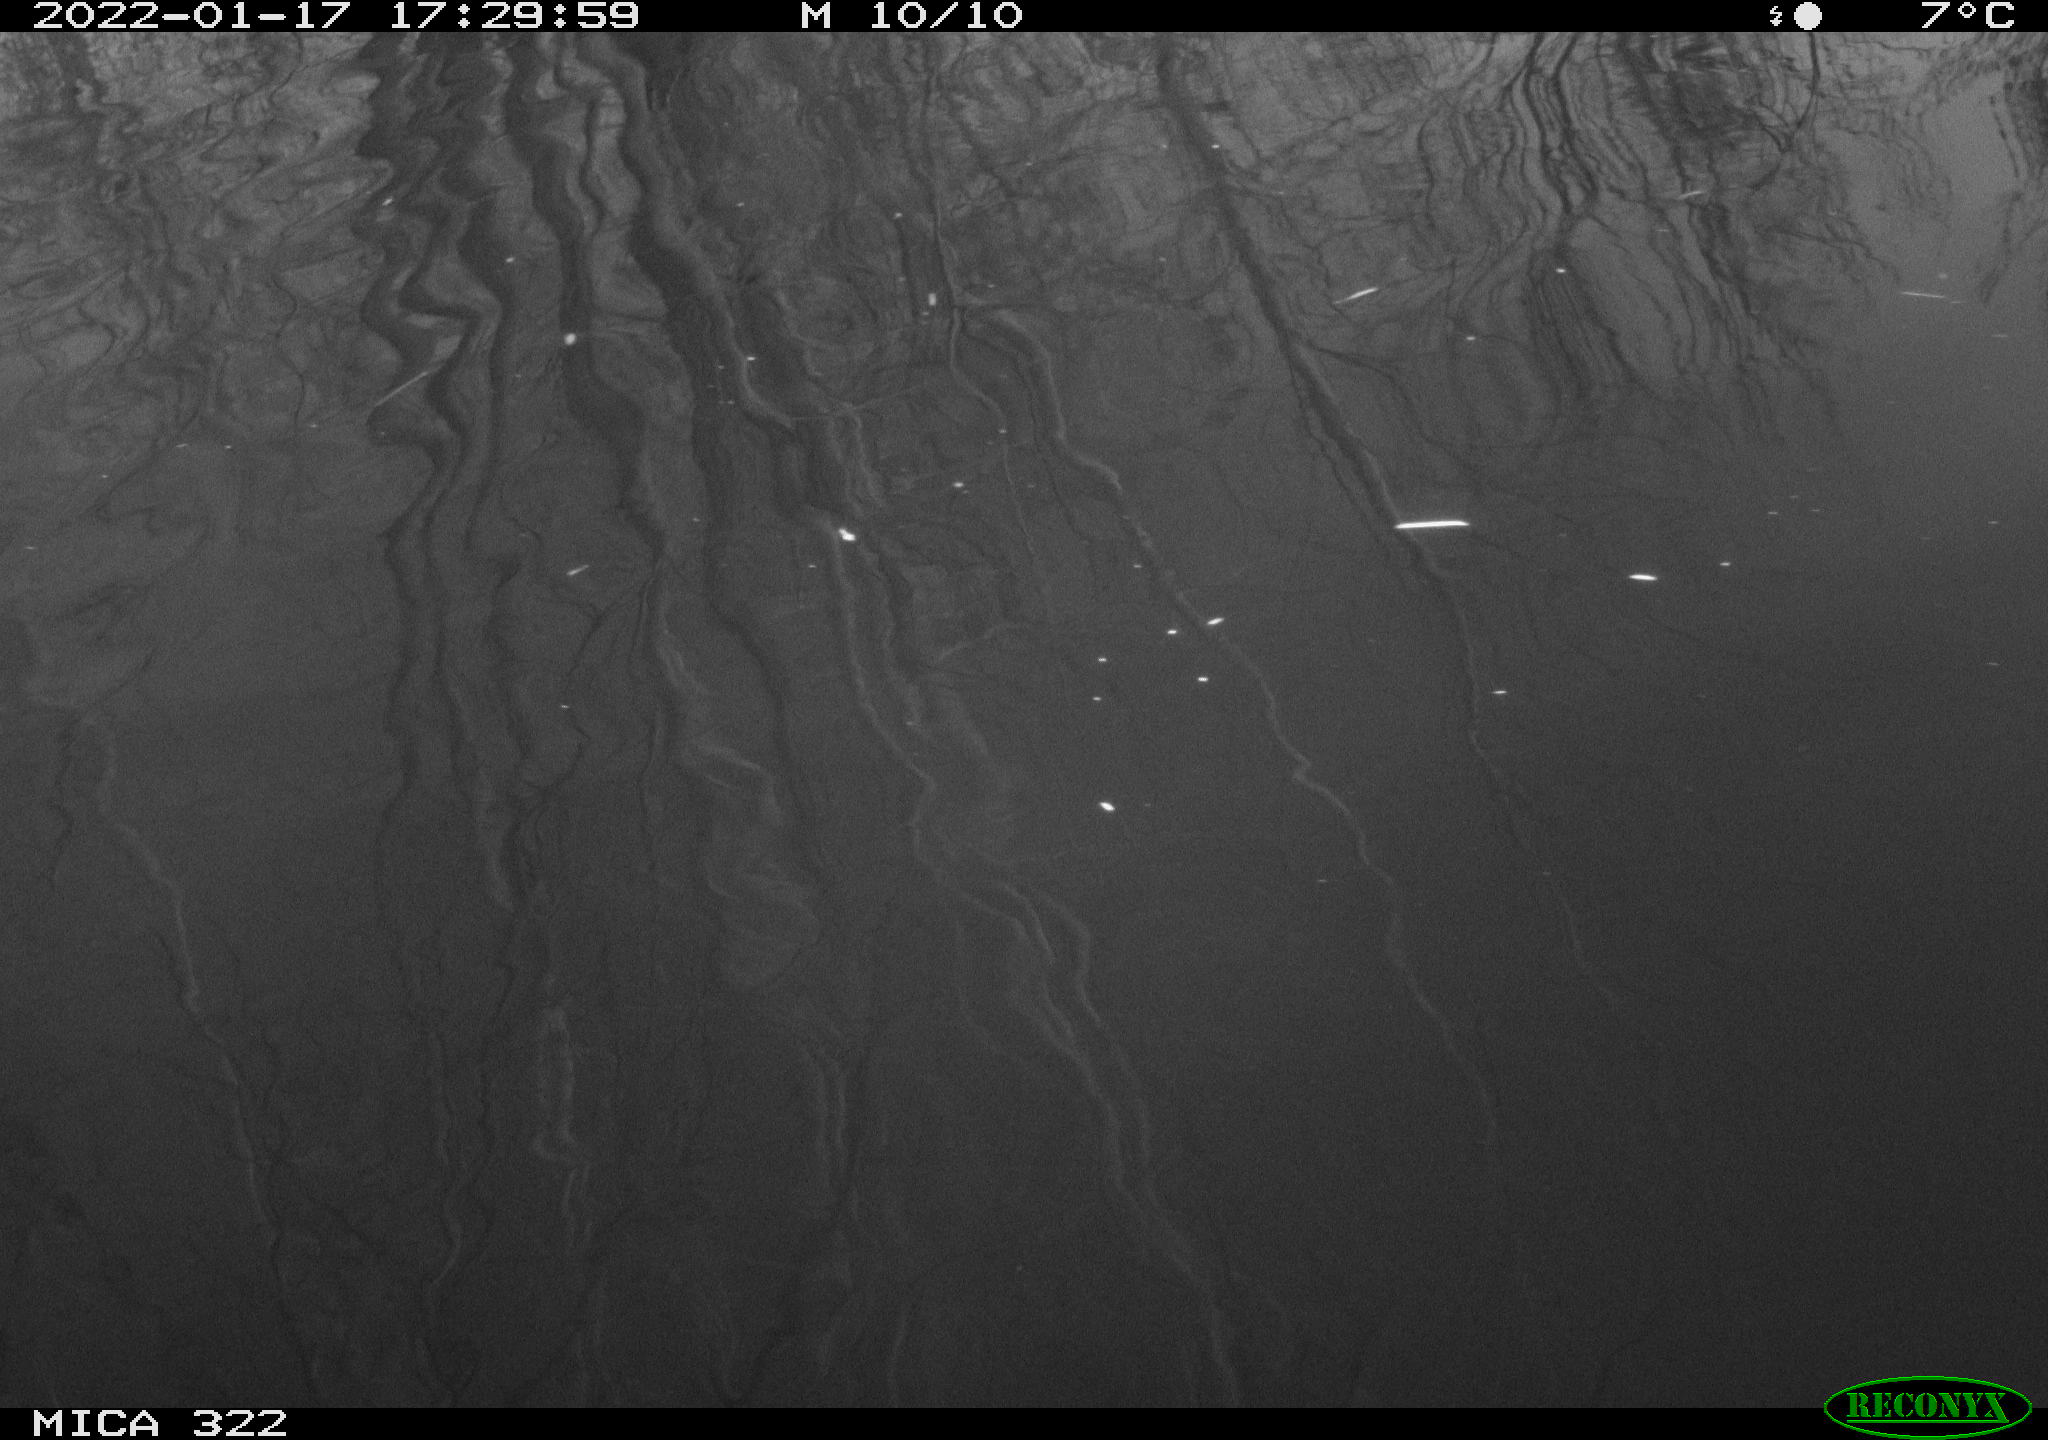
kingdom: Animalia
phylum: Chordata
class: Aves
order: Gruiformes
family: Rallidae
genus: Gallinula
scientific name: Gallinula chloropus
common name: Common moorhen
